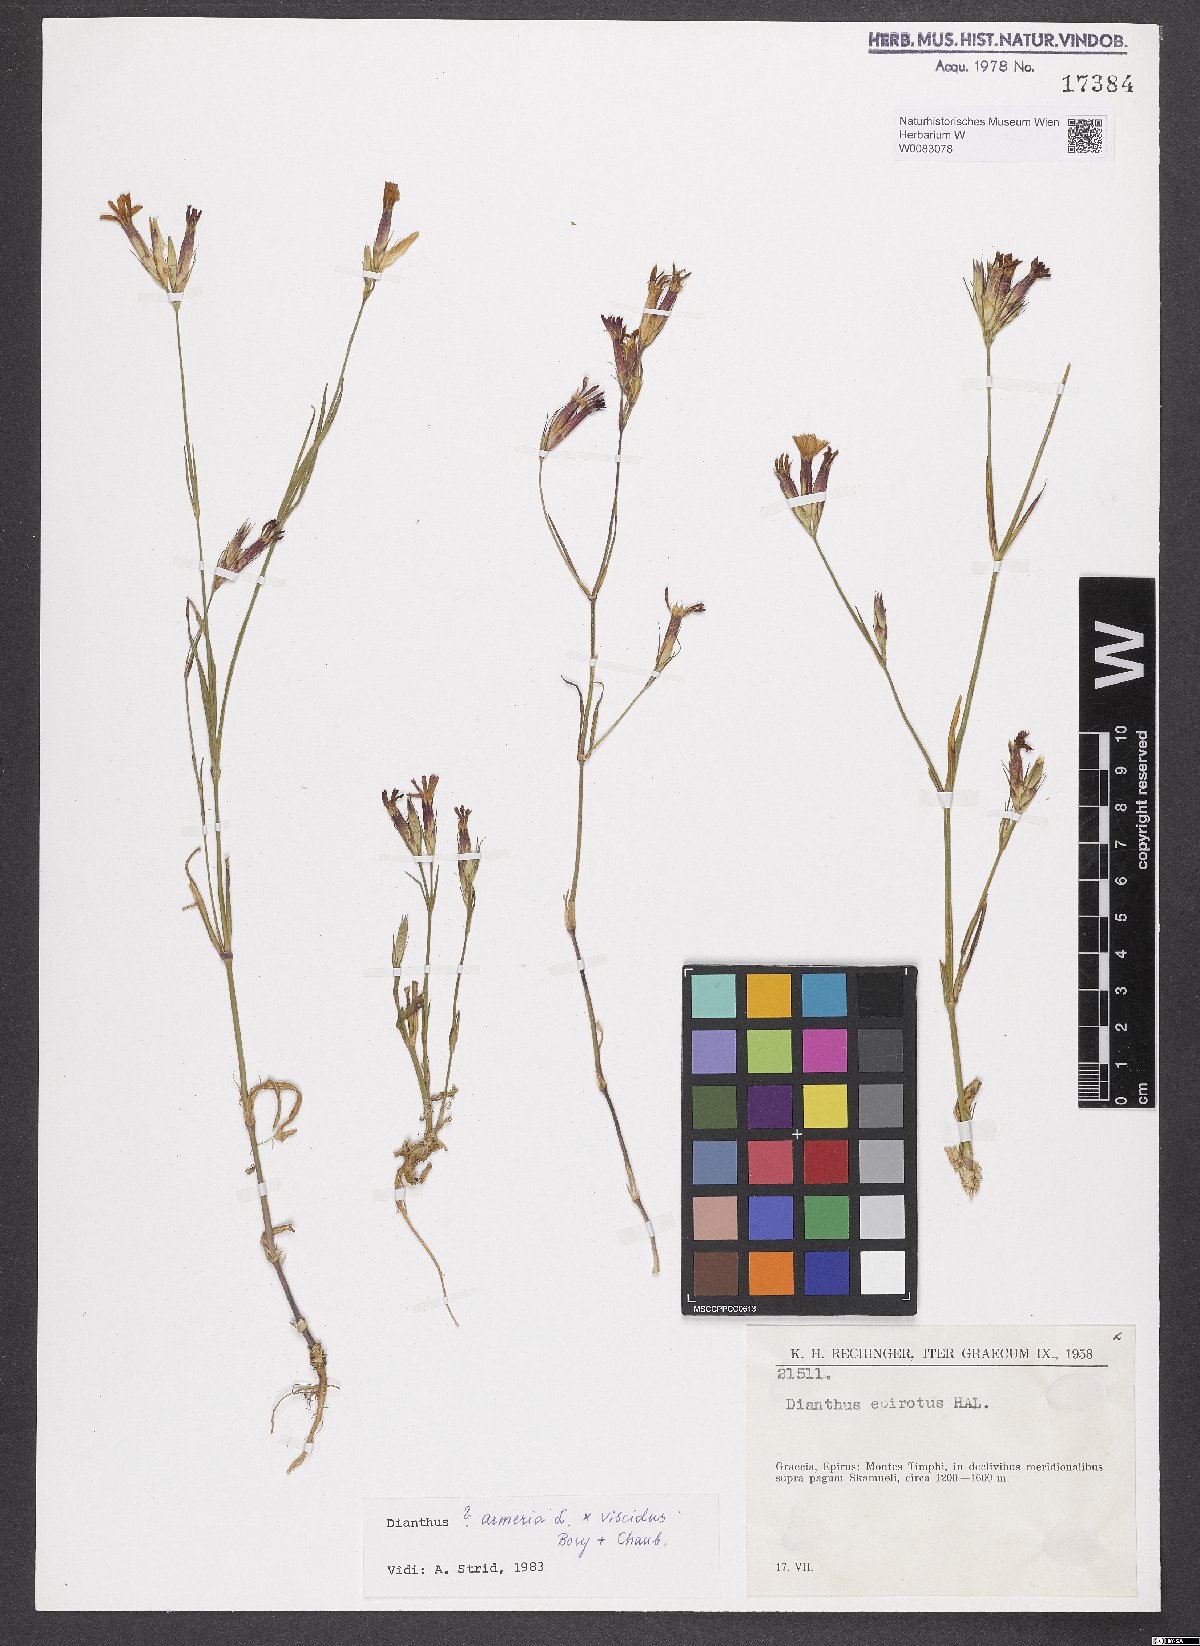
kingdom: Plantae
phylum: Tracheophyta
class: Magnoliopsida
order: Caryophyllales
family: Caryophyllaceae
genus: Dianthus
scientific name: Dianthus armeria
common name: Deptford pink
